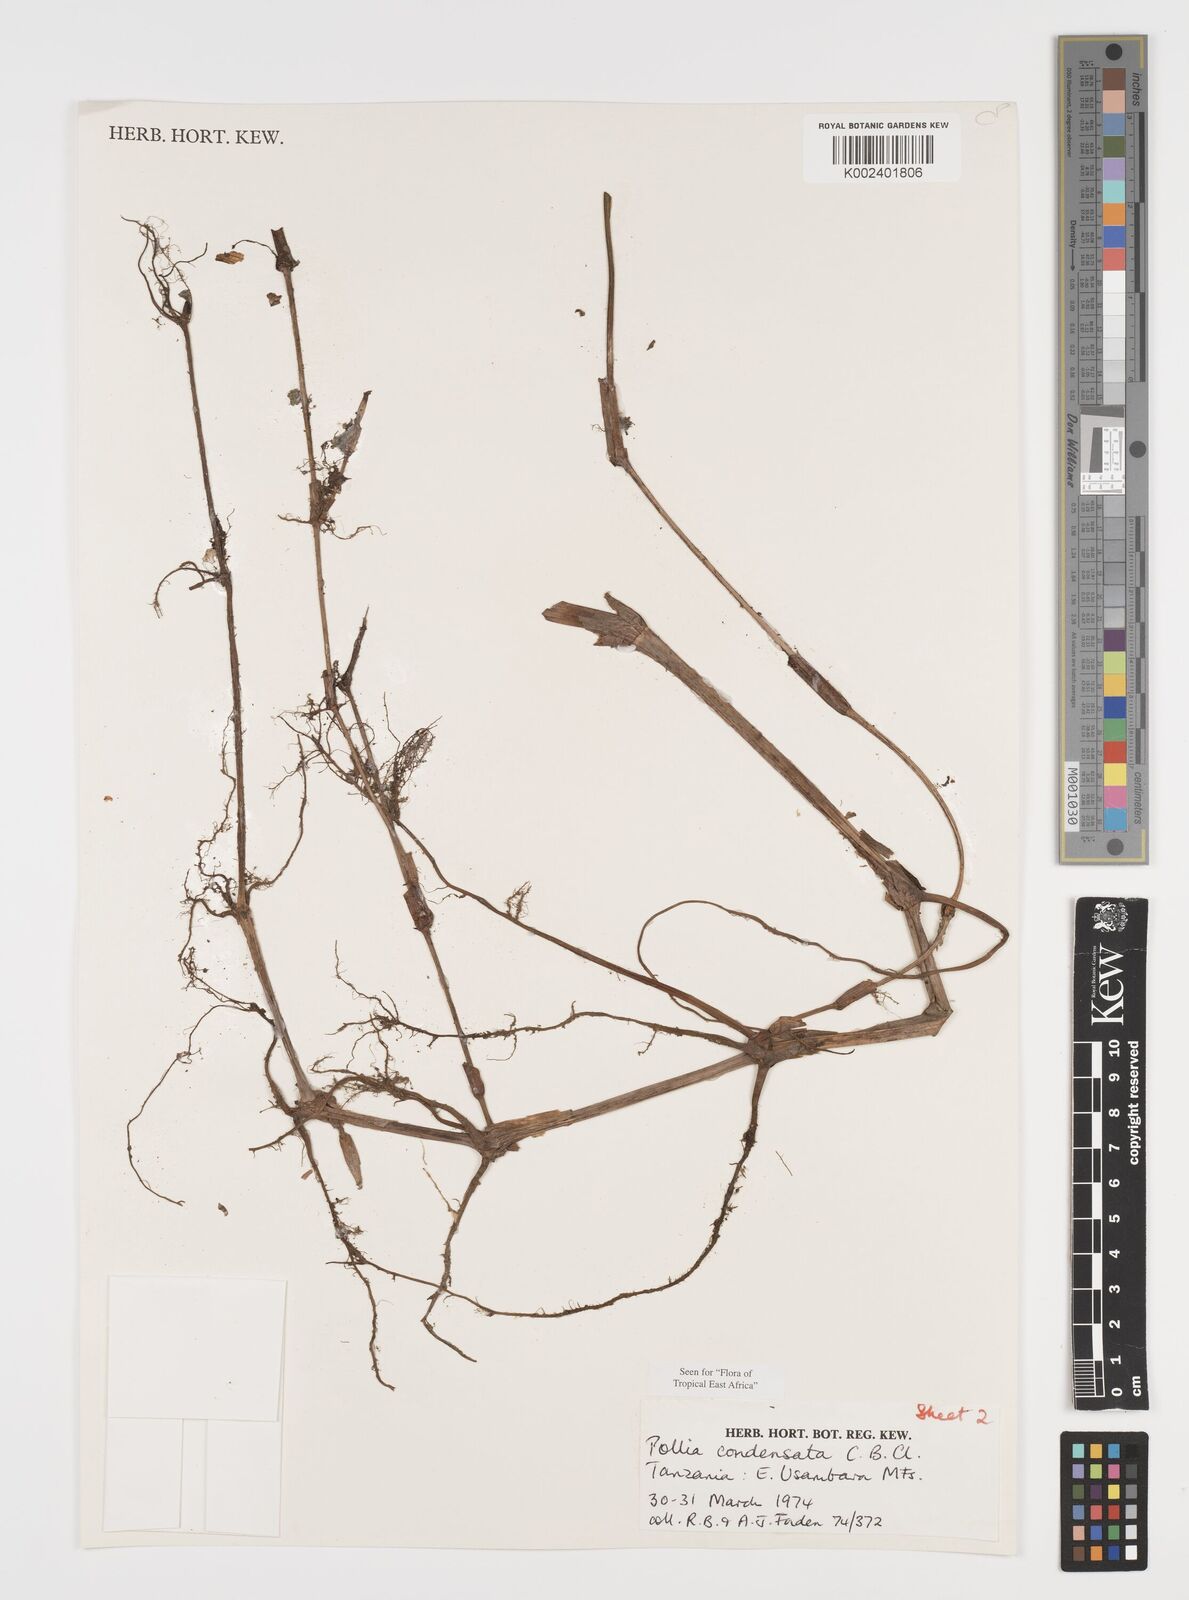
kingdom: Plantae
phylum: Tracheophyta
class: Liliopsida
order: Commelinales
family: Commelinaceae
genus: Pollia
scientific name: Pollia condensata
